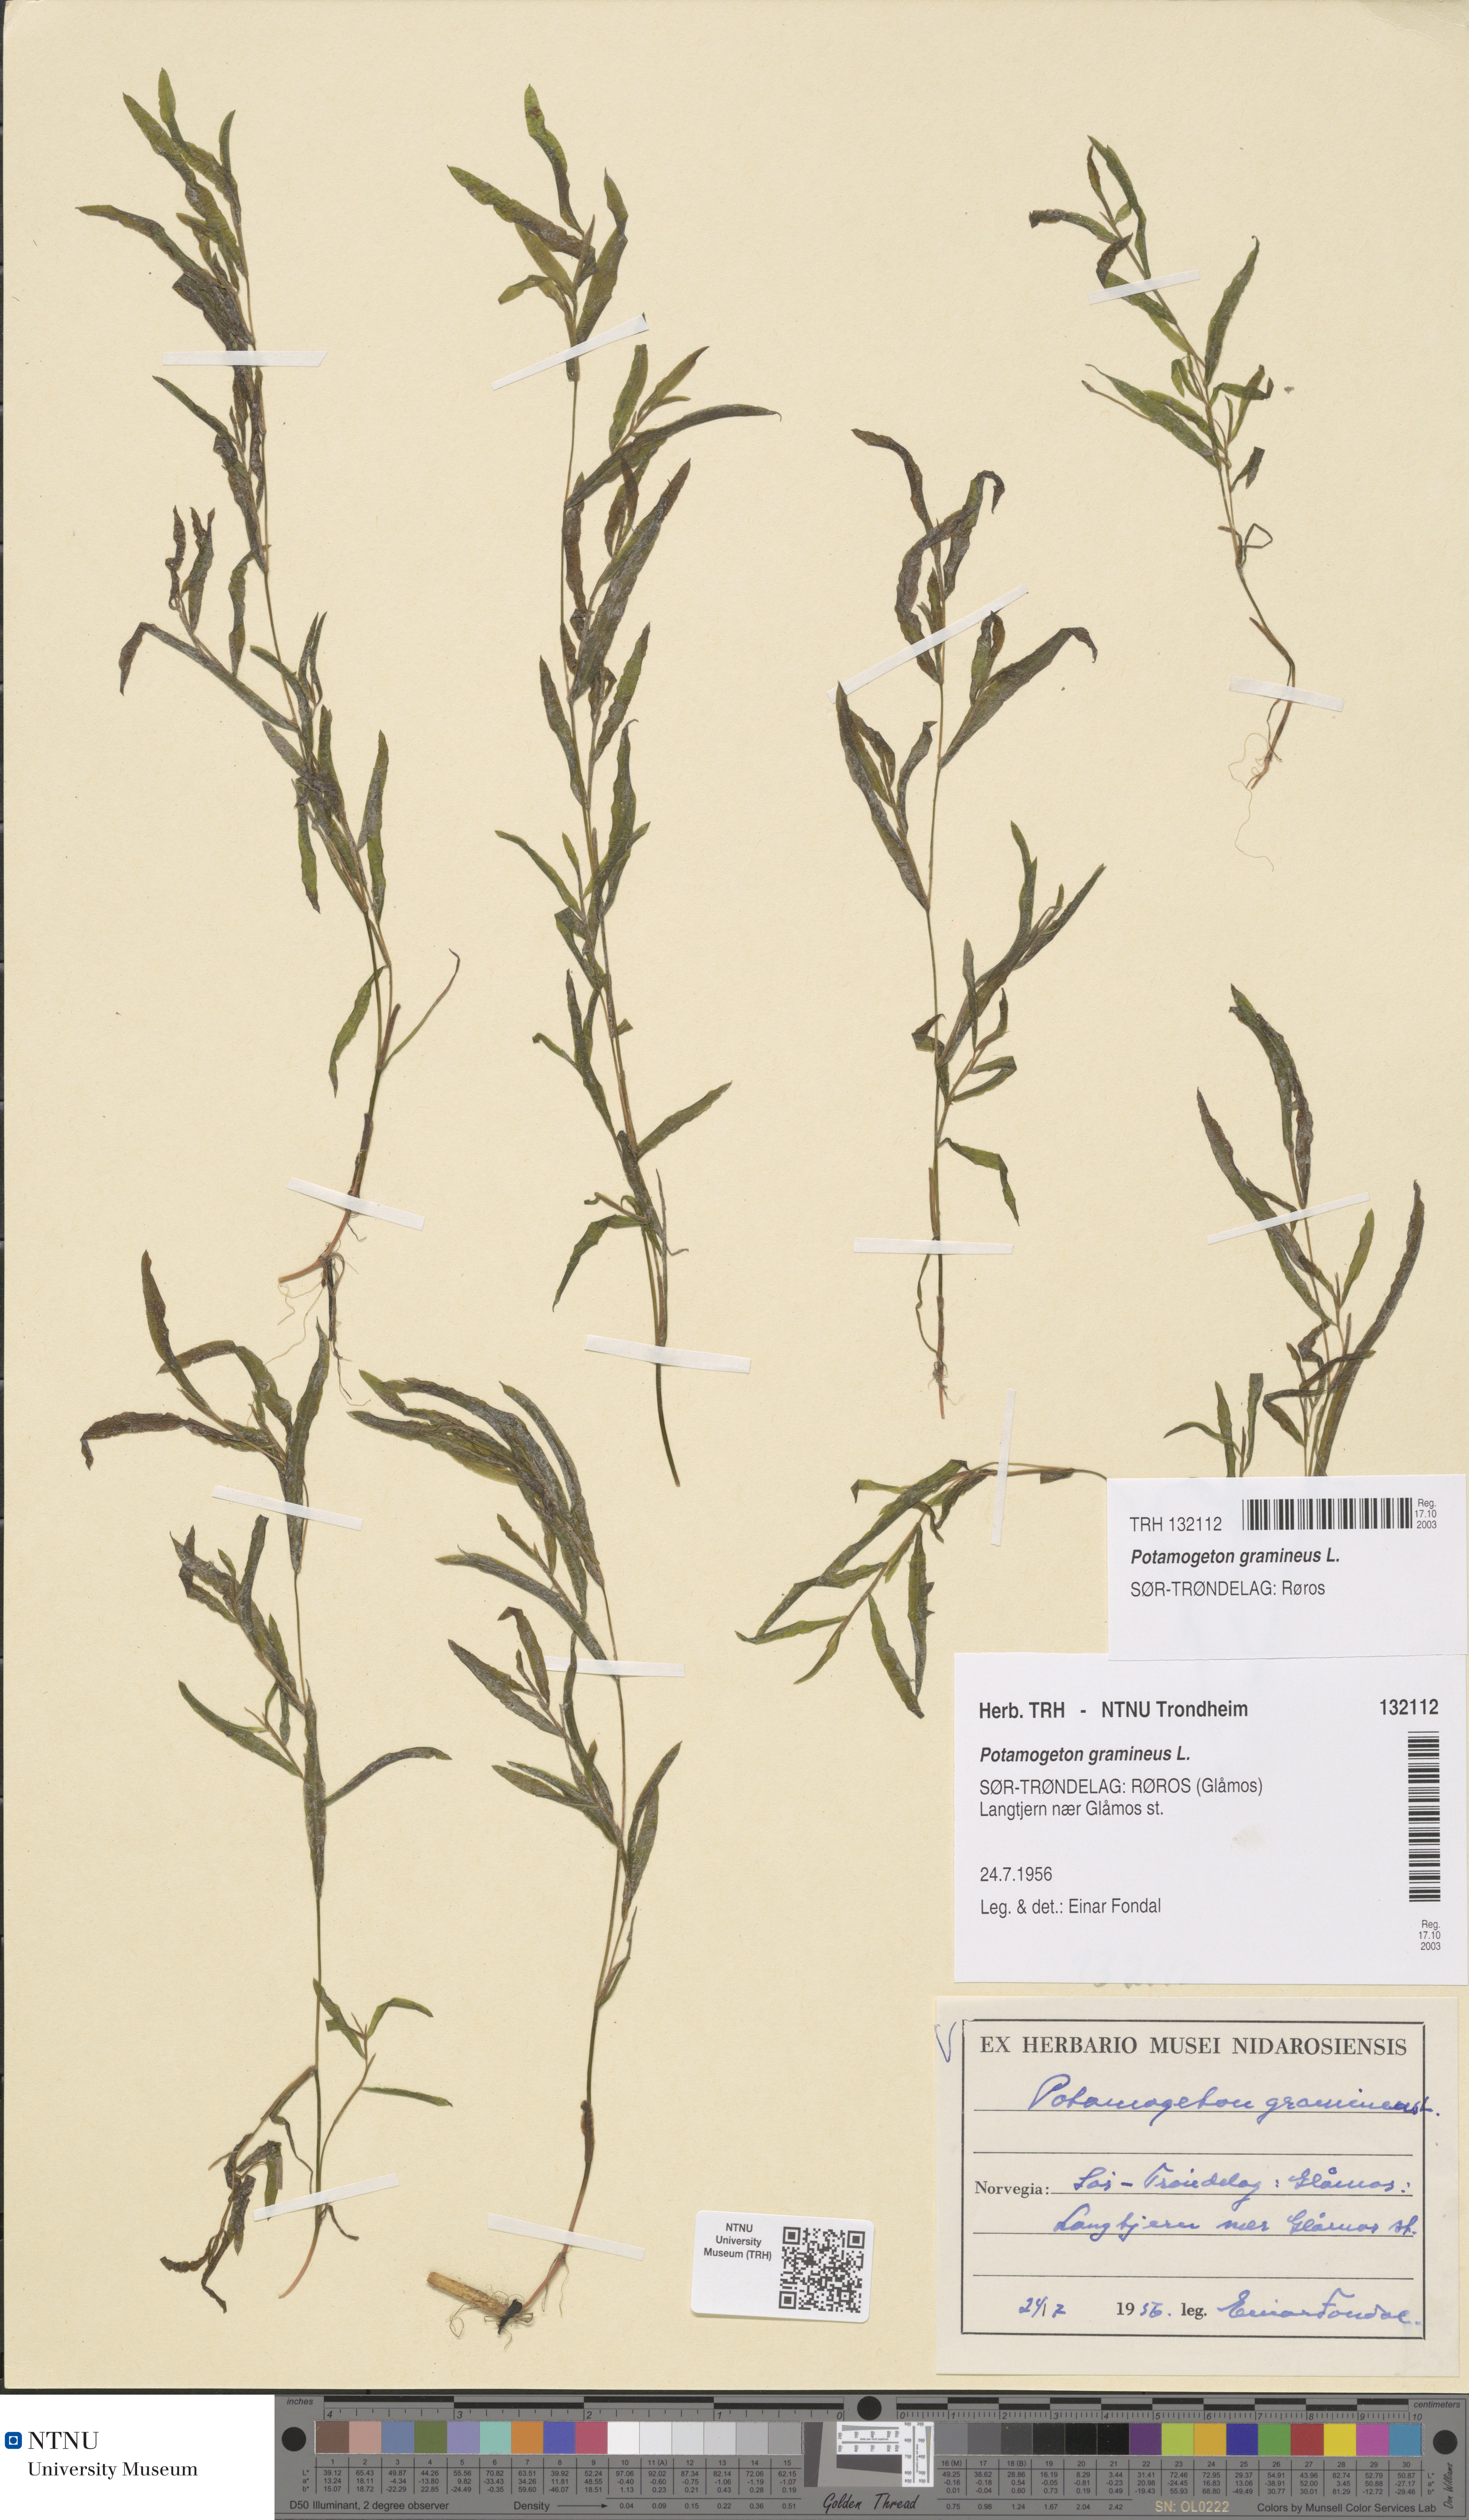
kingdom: Plantae
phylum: Tracheophyta
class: Liliopsida
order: Alismatales
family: Potamogetonaceae
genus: Potamogeton
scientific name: Potamogeton gramineus
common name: Various-leaved pondweed
